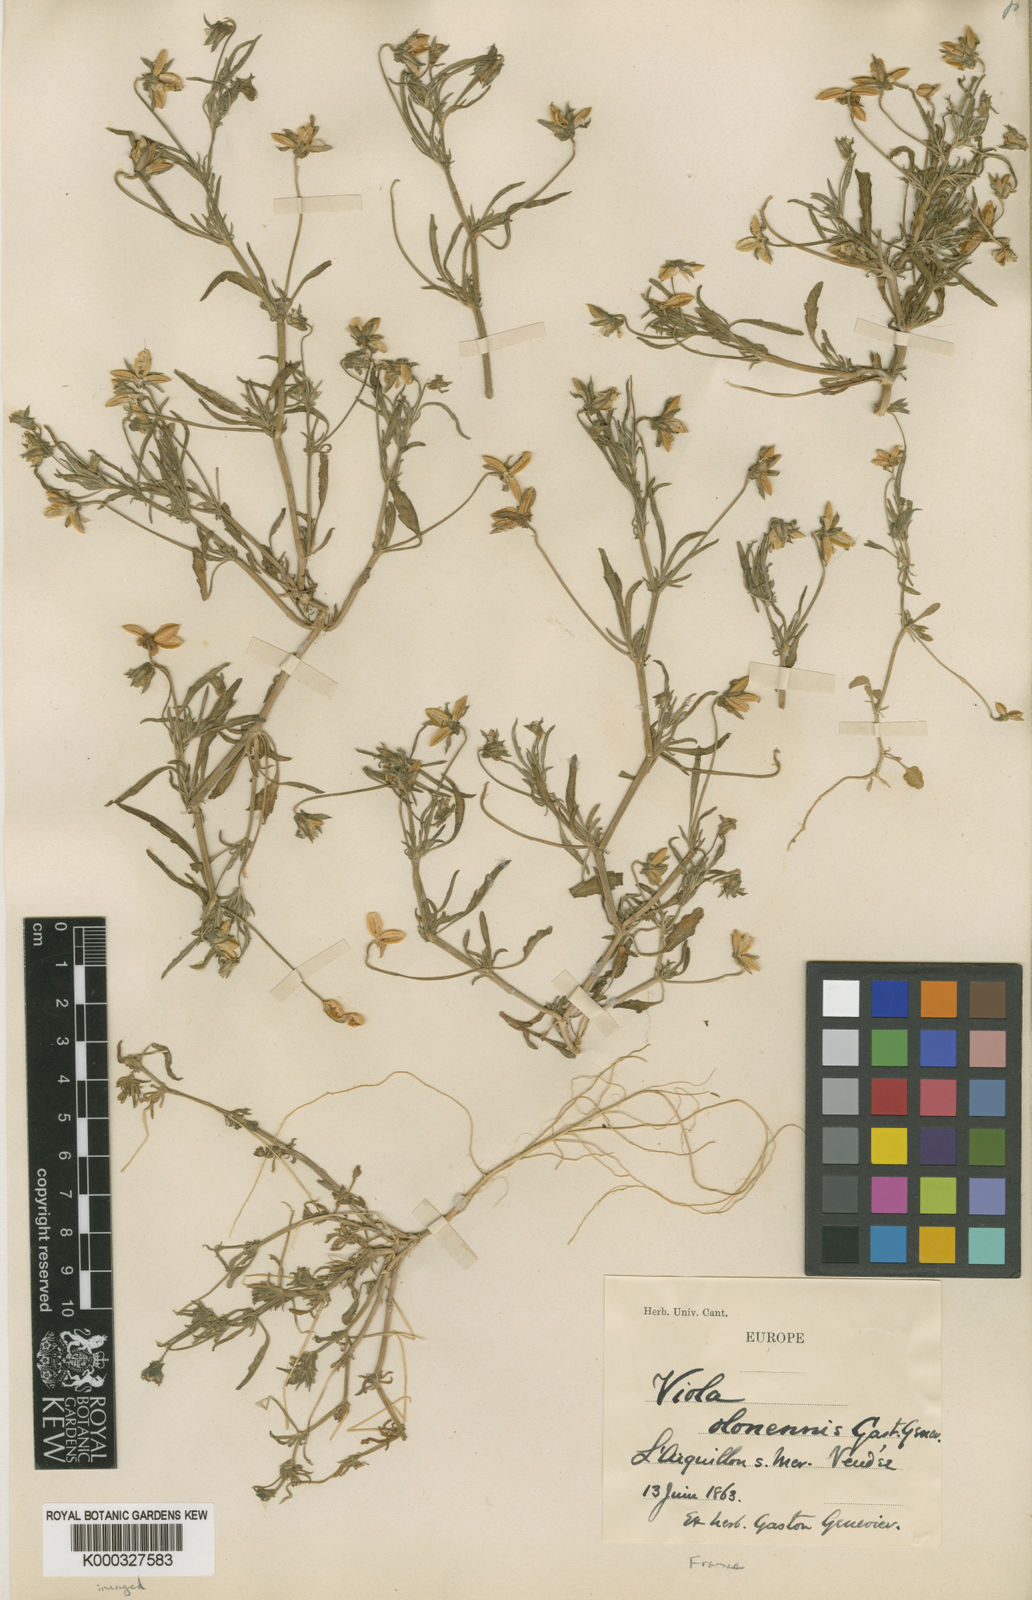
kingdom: Plantae
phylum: Tracheophyta
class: Magnoliopsida
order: Malpighiales
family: Violaceae
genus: Viola
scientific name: Viola arvensis
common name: Field pansy
